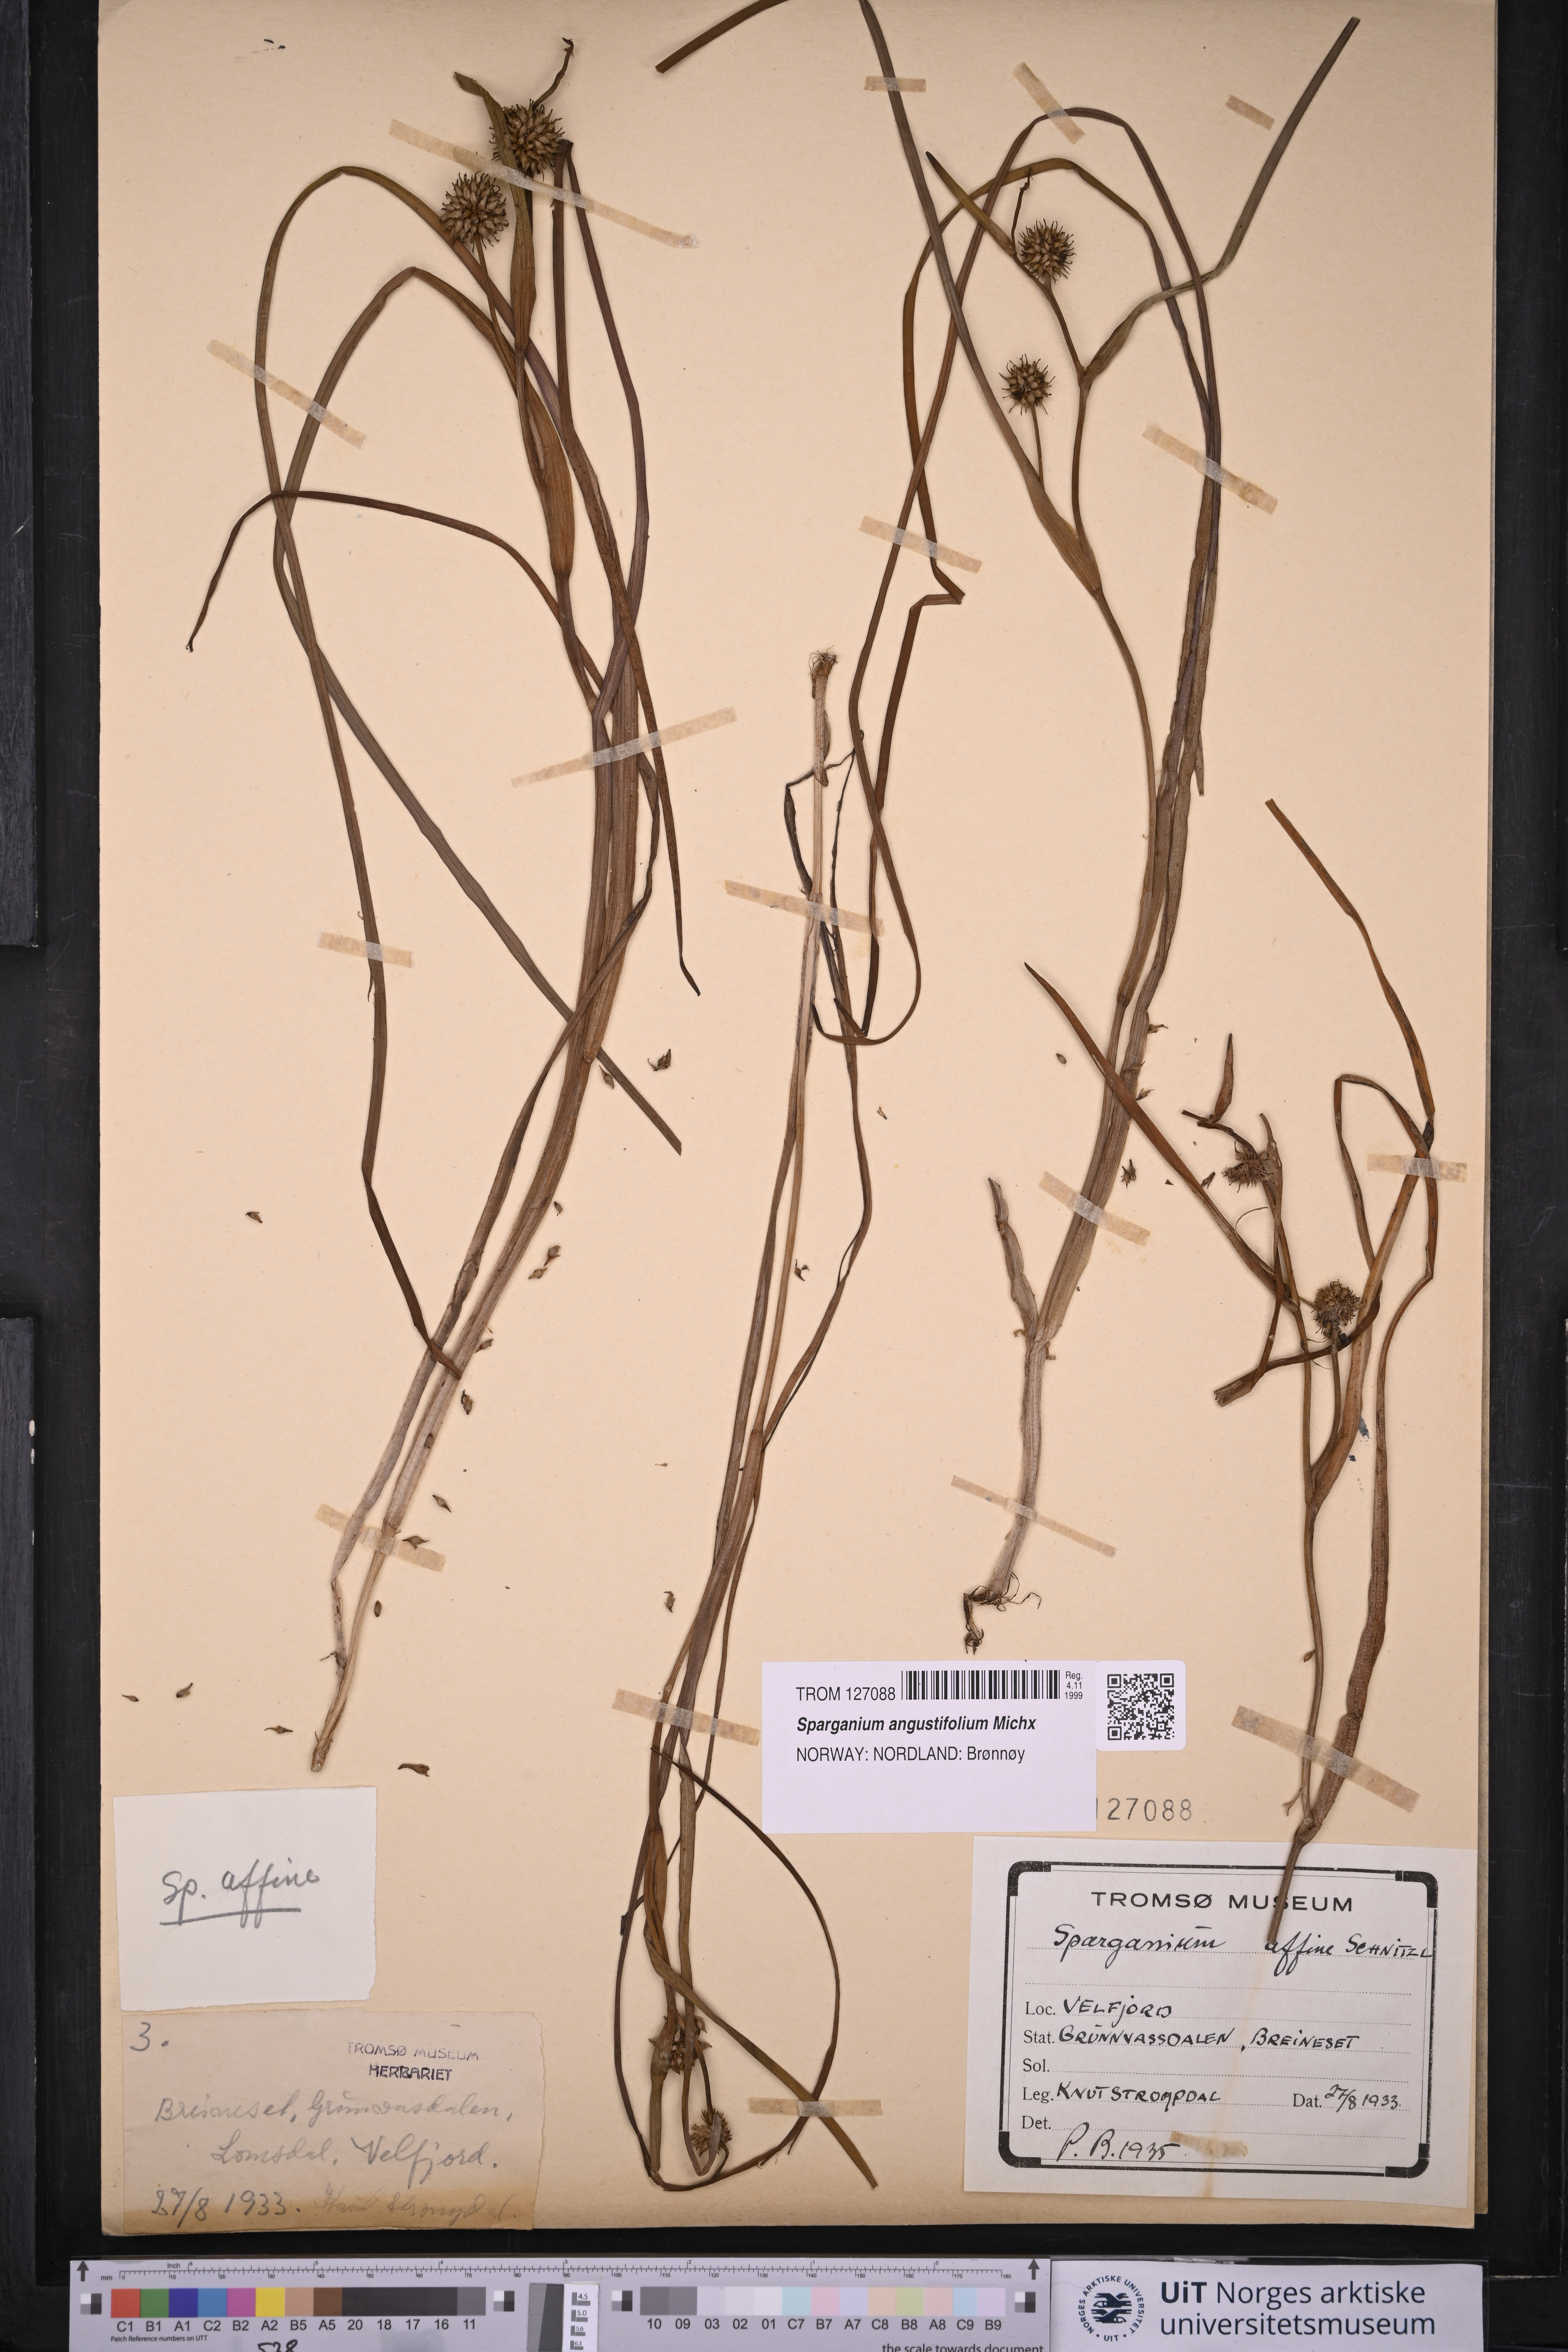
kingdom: Plantae
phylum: Tracheophyta
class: Liliopsida
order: Poales
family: Typhaceae
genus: Sparganium
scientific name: Sparganium angustifolium
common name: Floating bur-reed
